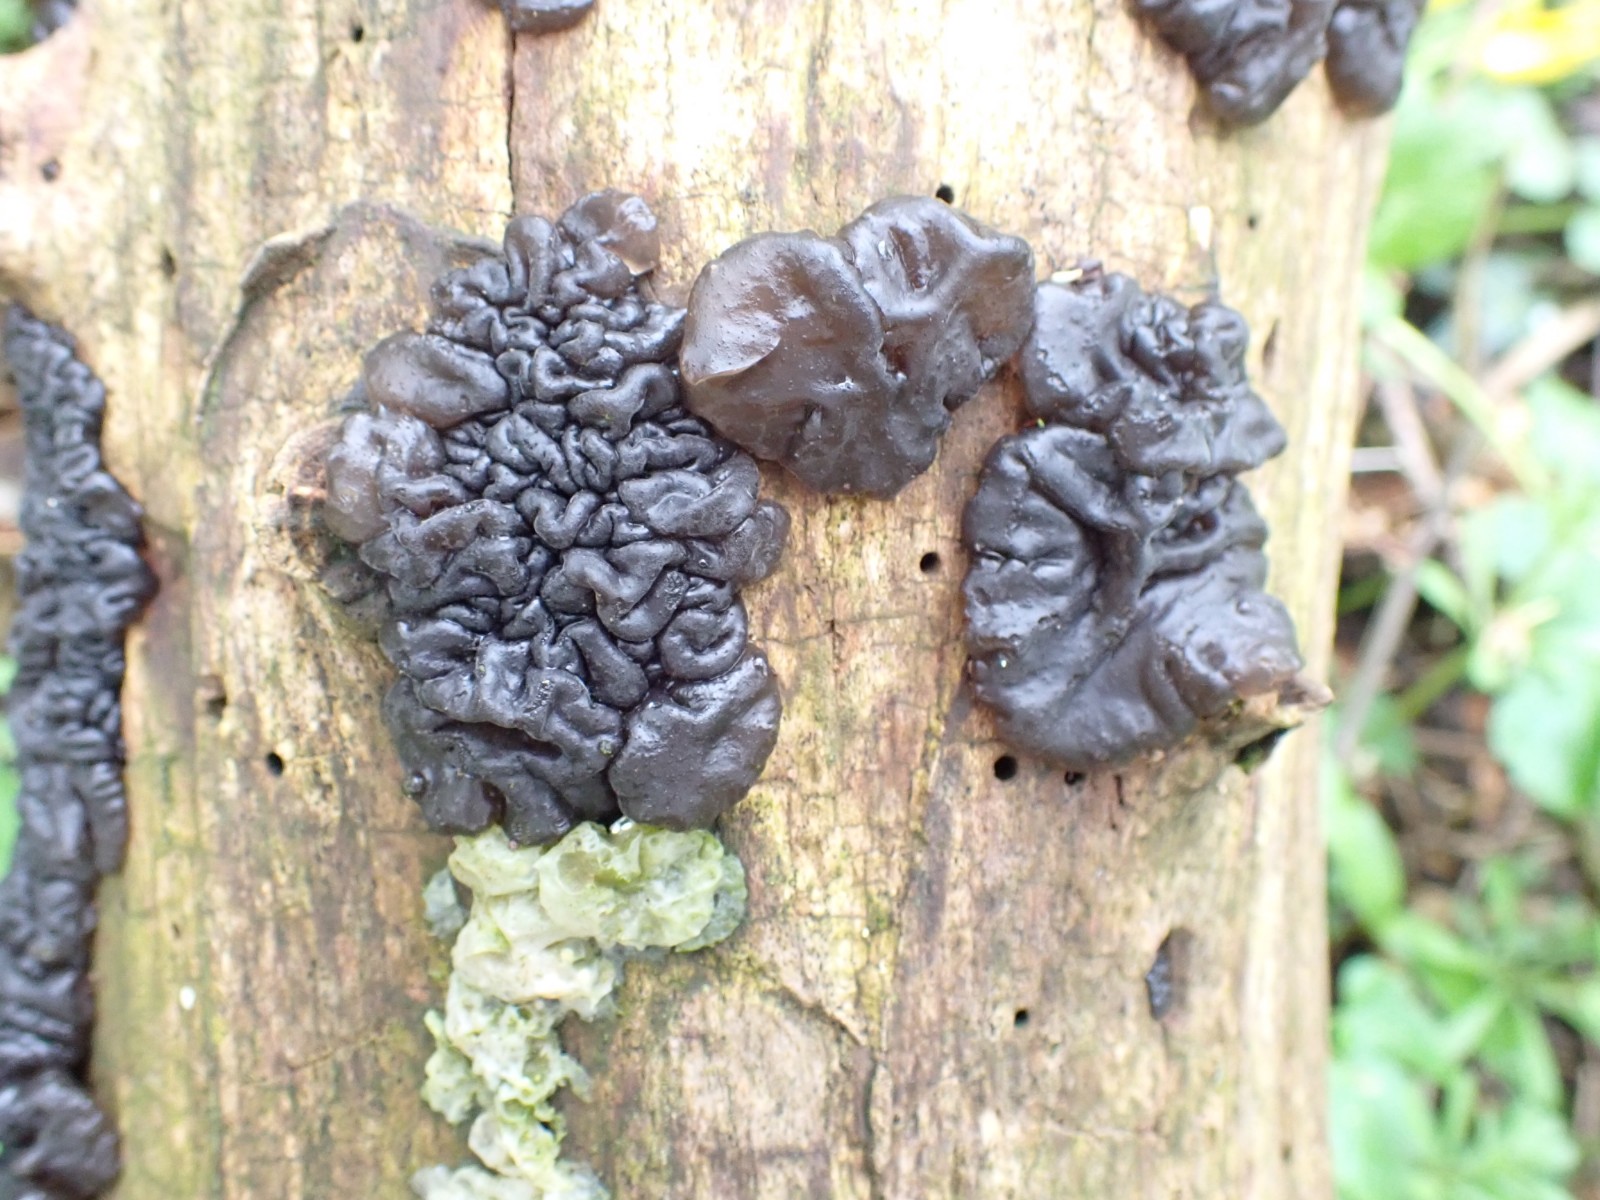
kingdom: Fungi
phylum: Basidiomycota
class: Agaricomycetes
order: Auriculariales
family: Auriculariaceae
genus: Exidia
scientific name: Exidia nigricans
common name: almindelig bævretop
